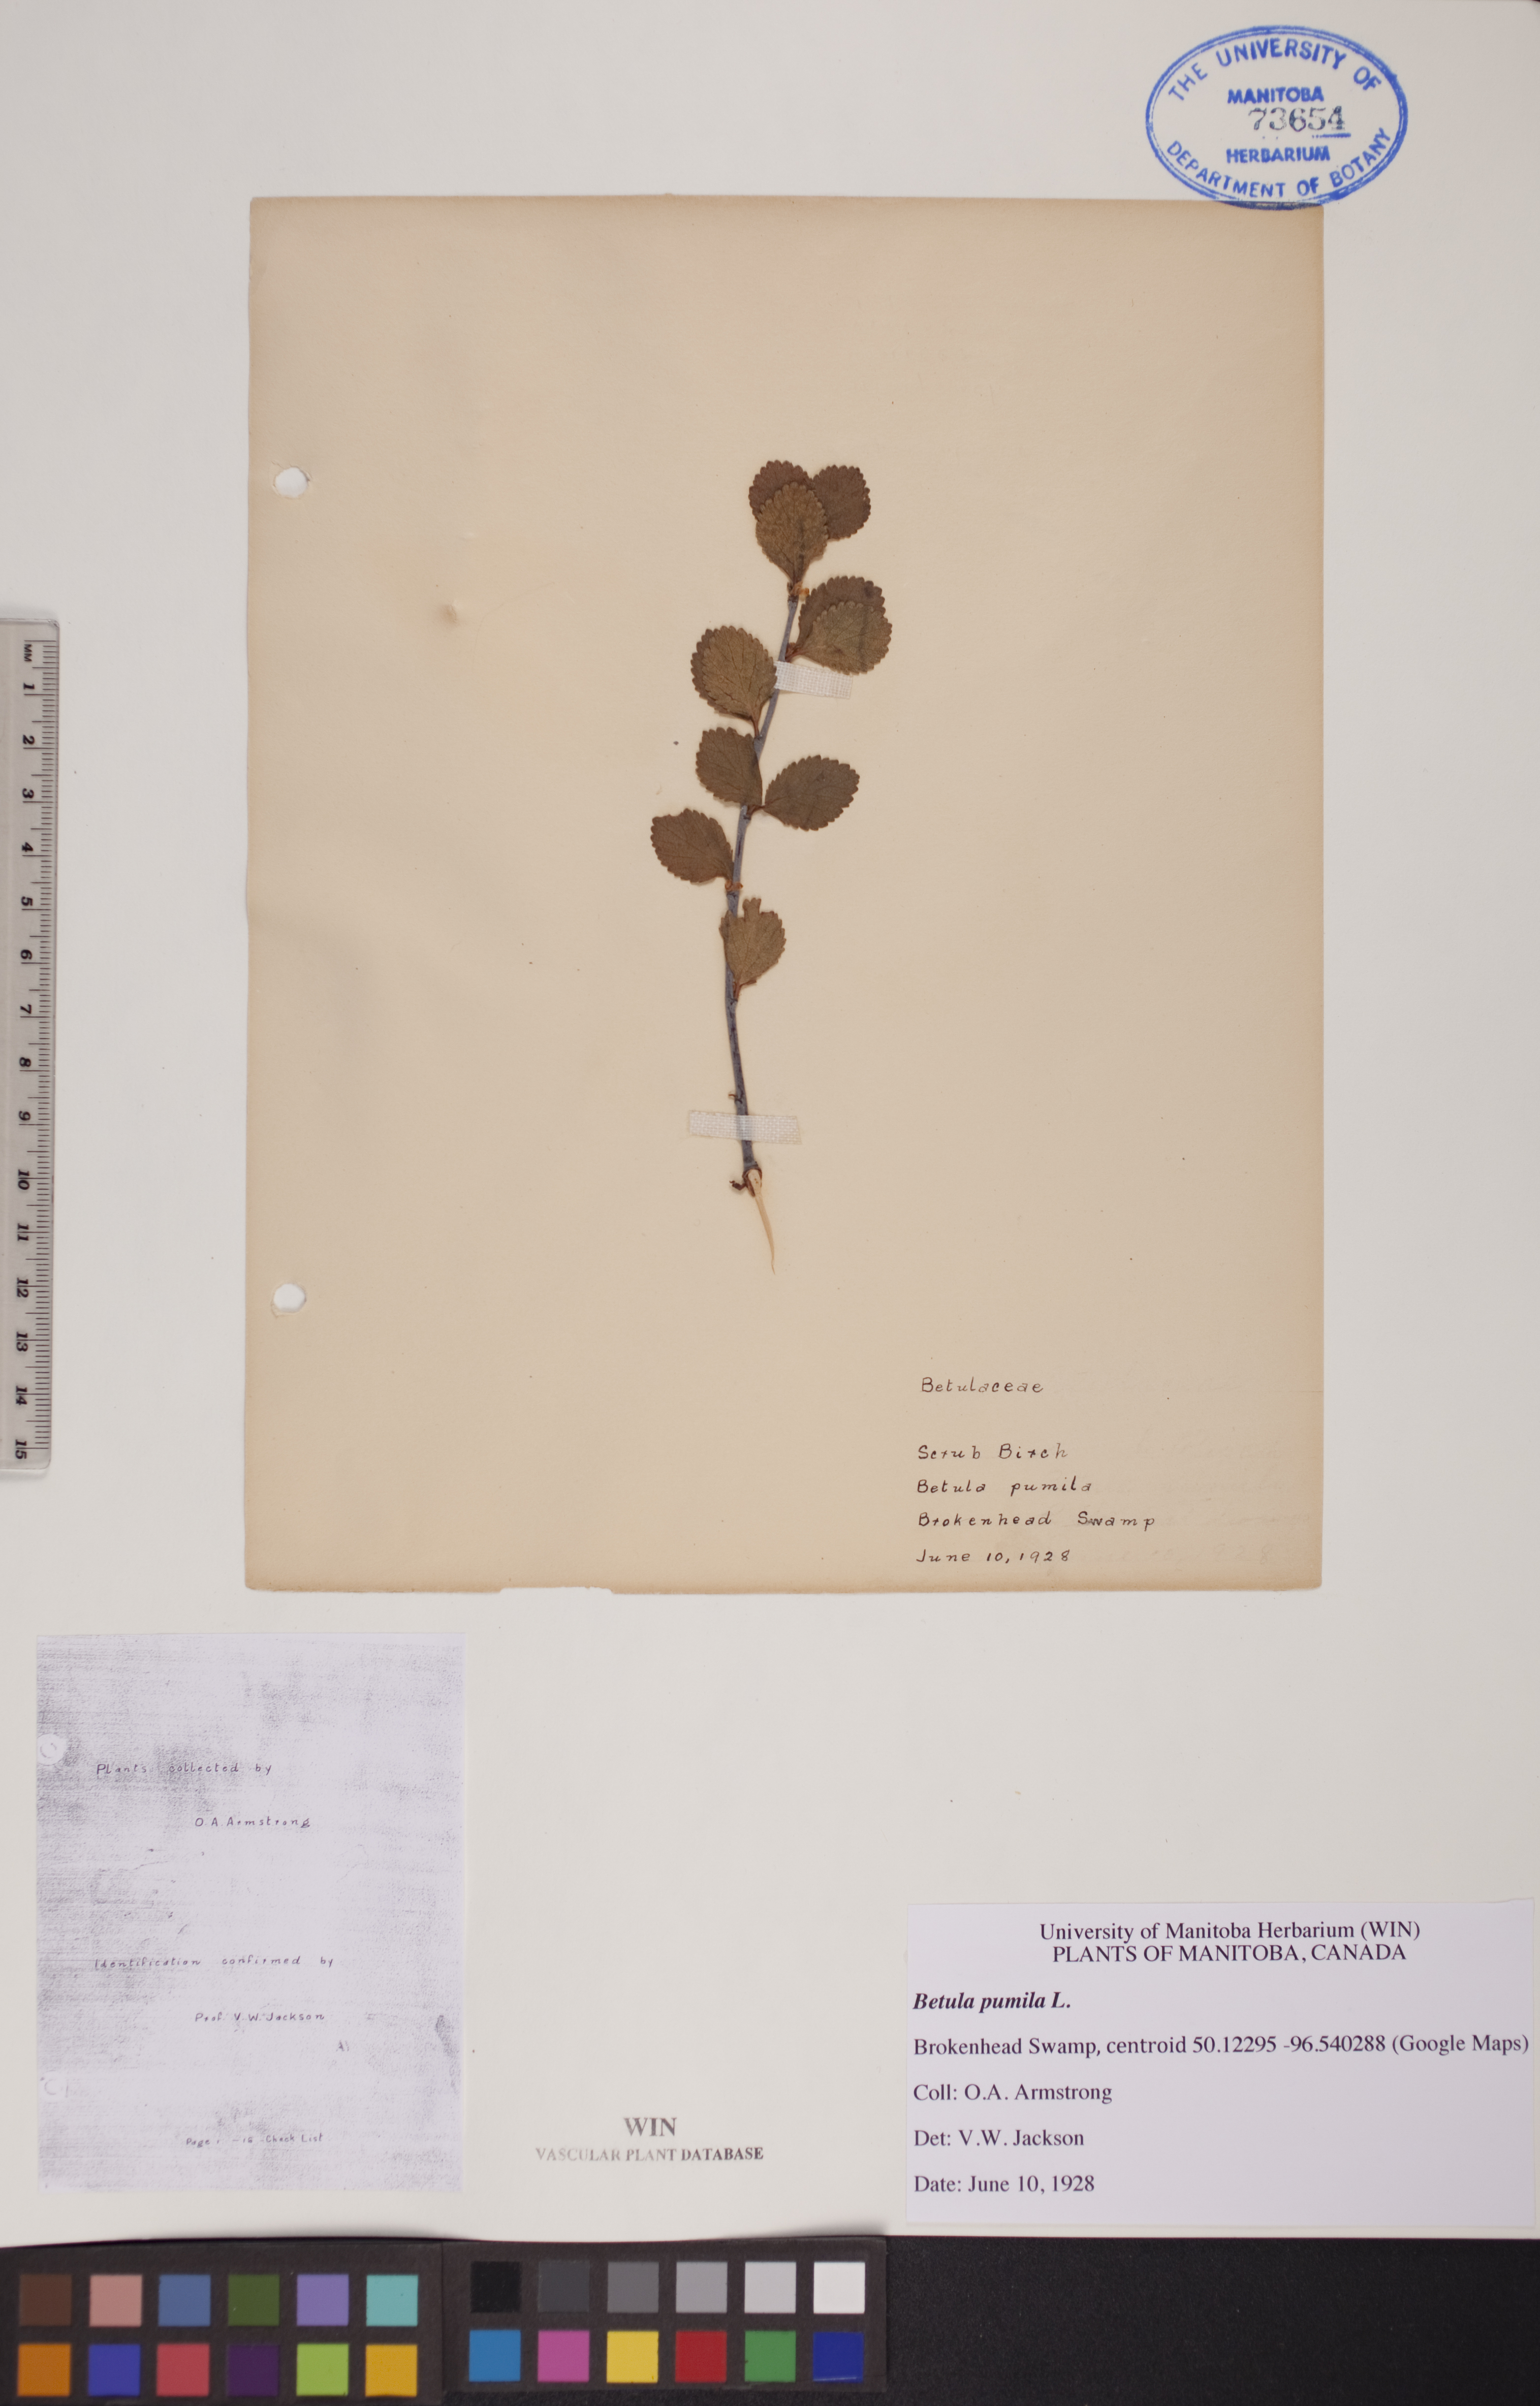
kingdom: Plantae
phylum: Tracheophyta
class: Magnoliopsida
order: Fagales
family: Betulaceae
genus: Betula
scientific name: Betula pumila
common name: Bog birch
